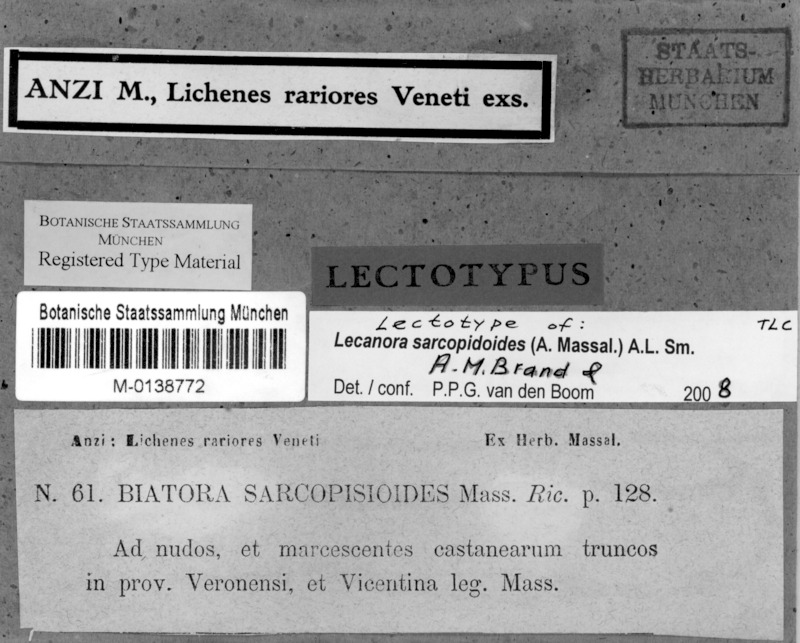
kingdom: Fungi
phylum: Ascomycota
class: Lecanoromycetes
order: Lecanorales
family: Lecanoraceae
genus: Lecanora
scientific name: Lecanora sarcopidoides
